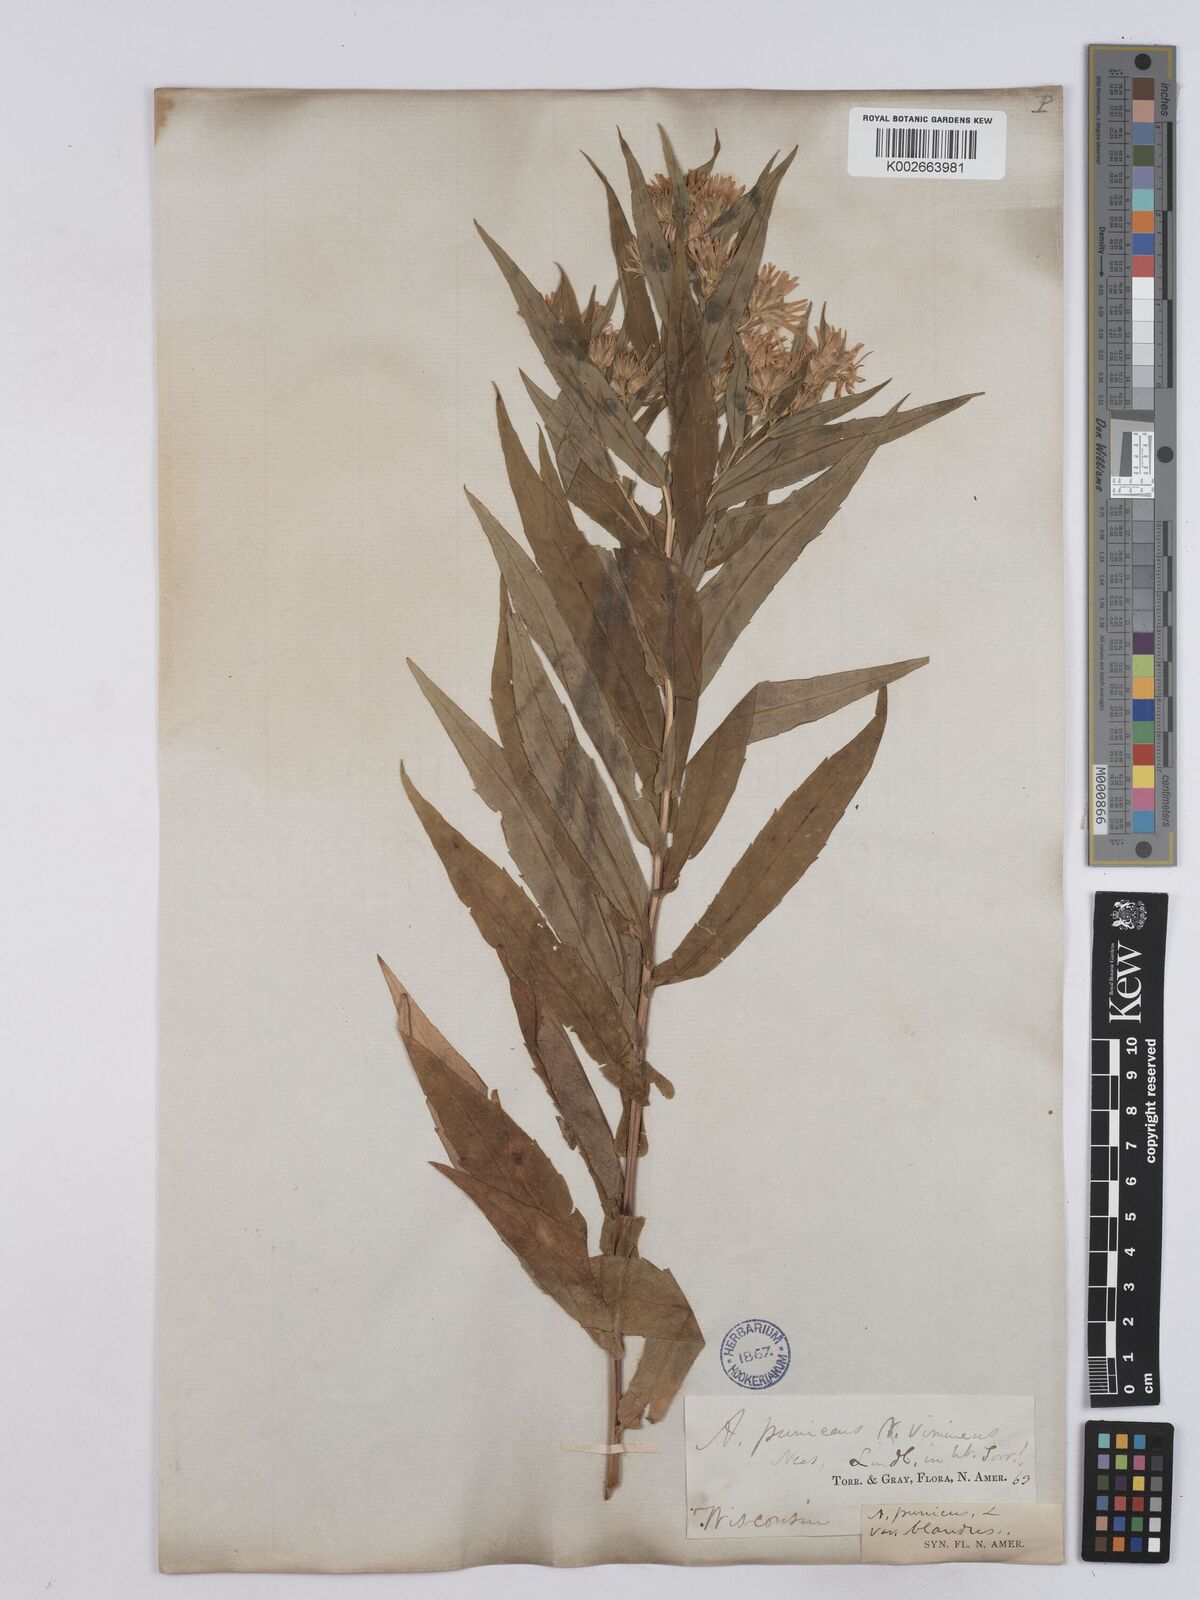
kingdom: Plantae
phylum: Tracheophyta
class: Magnoliopsida
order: Asterales
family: Asteraceae
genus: Symphyotrichum
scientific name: Symphyotrichum puniceum
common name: Bog aster
